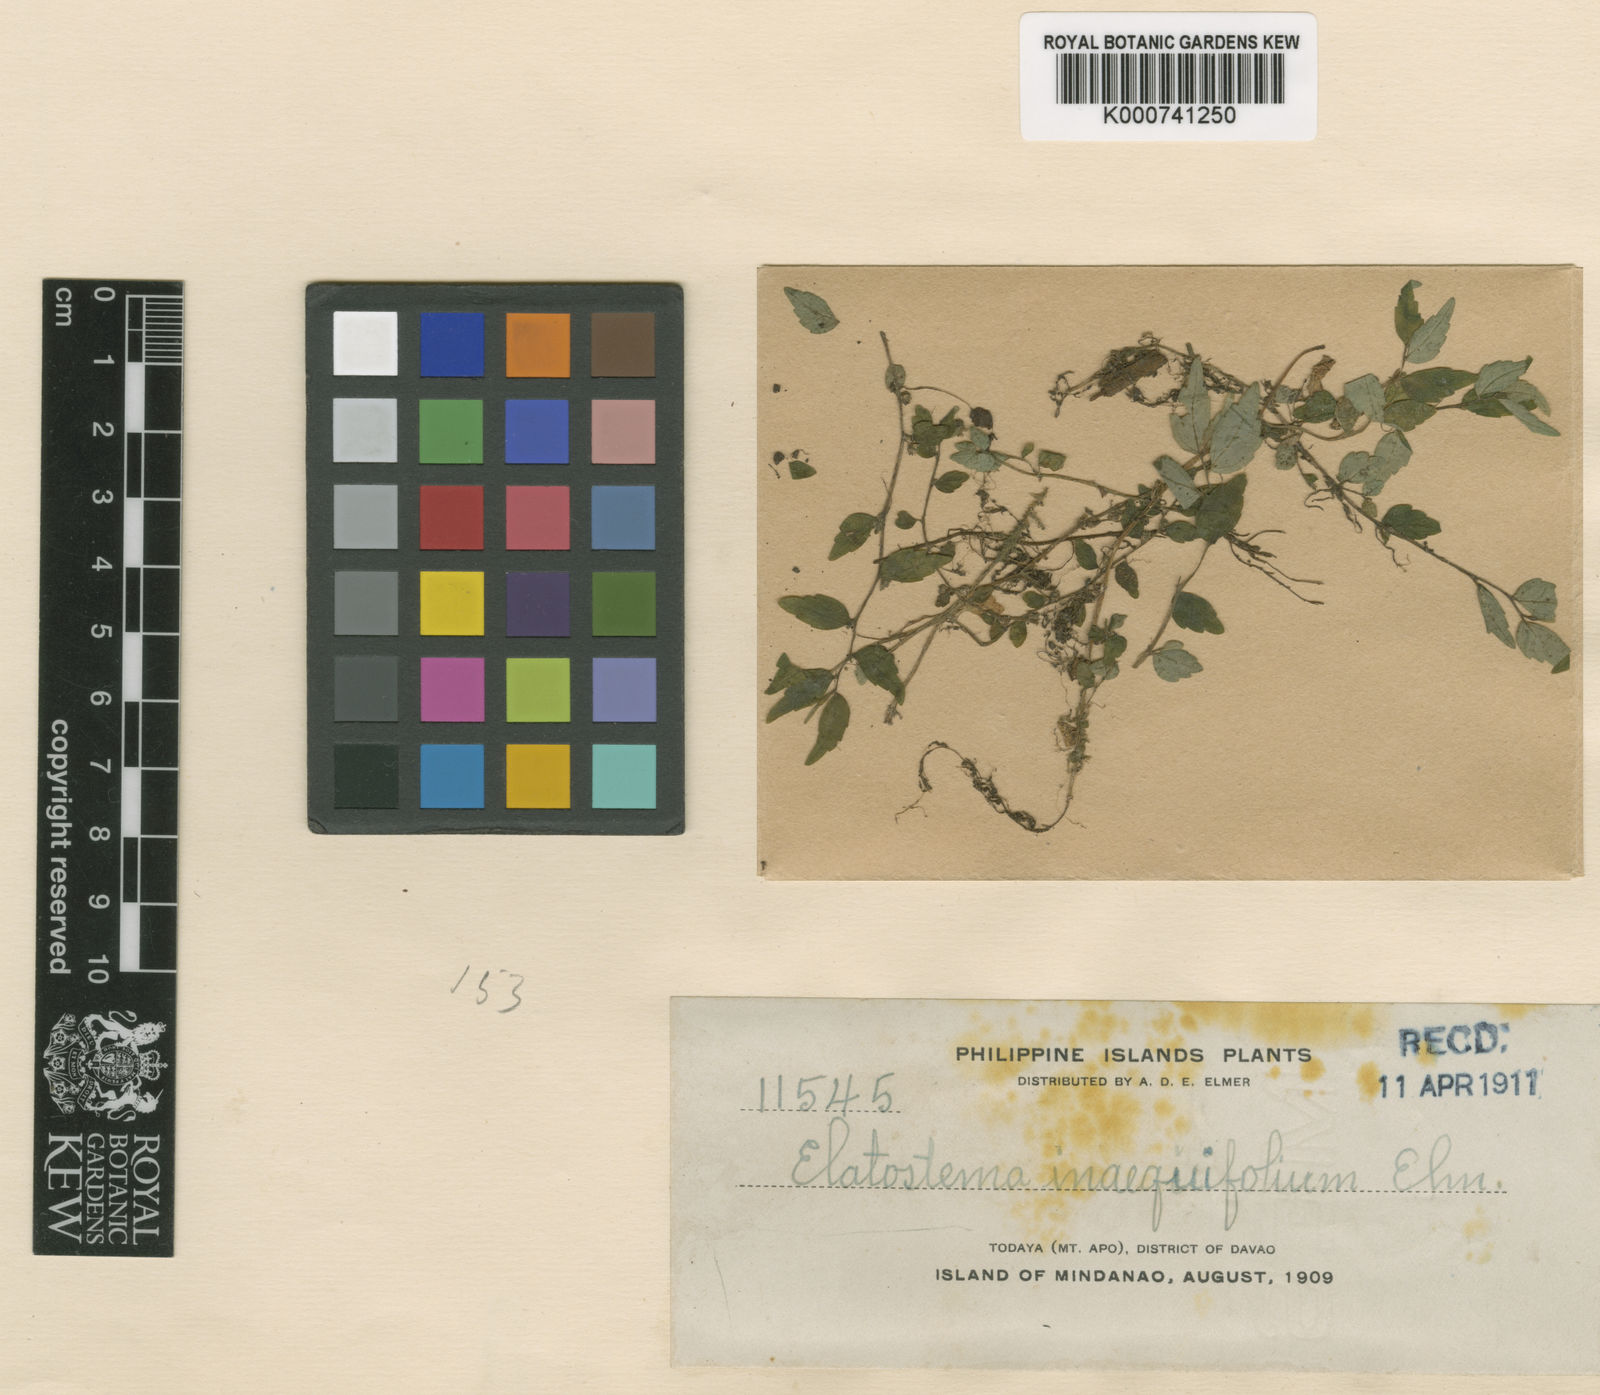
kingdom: Plantae
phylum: Tracheophyta
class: Magnoliopsida
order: Rosales
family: Urticaceae
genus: Elatostema
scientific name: Elatostema inaequifolium
